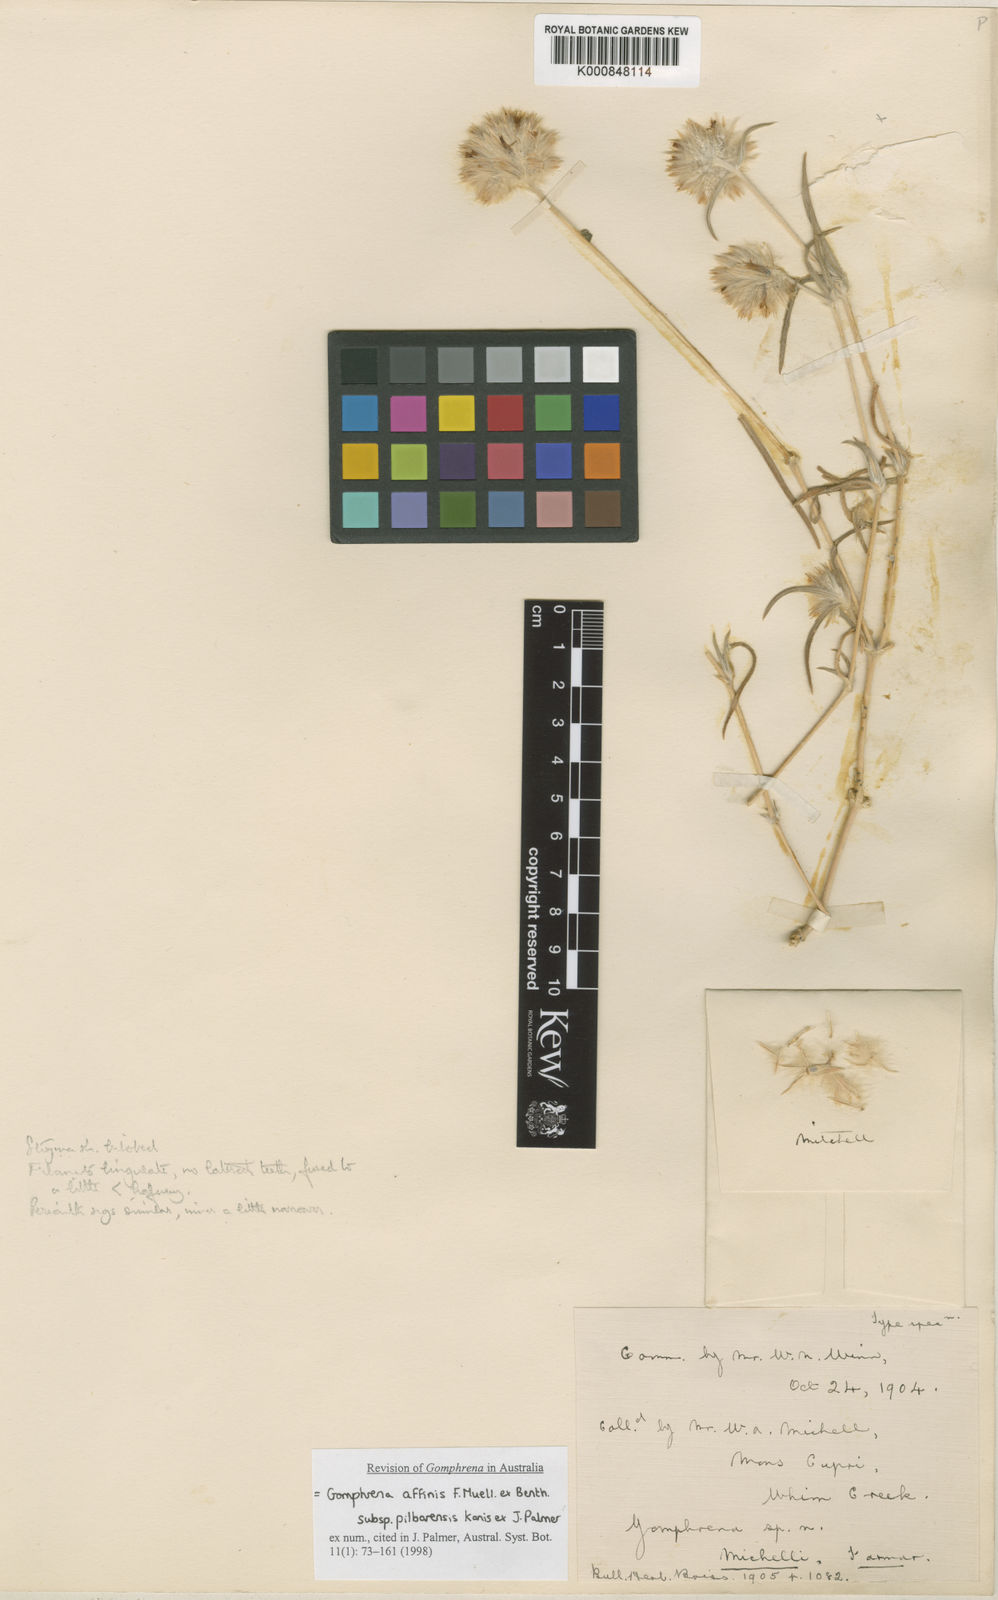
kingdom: Plantae
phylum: Tracheophyta
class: Magnoliopsida
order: Caryophyllales
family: Amaranthaceae
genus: Gomphrena
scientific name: Gomphrena affinis
